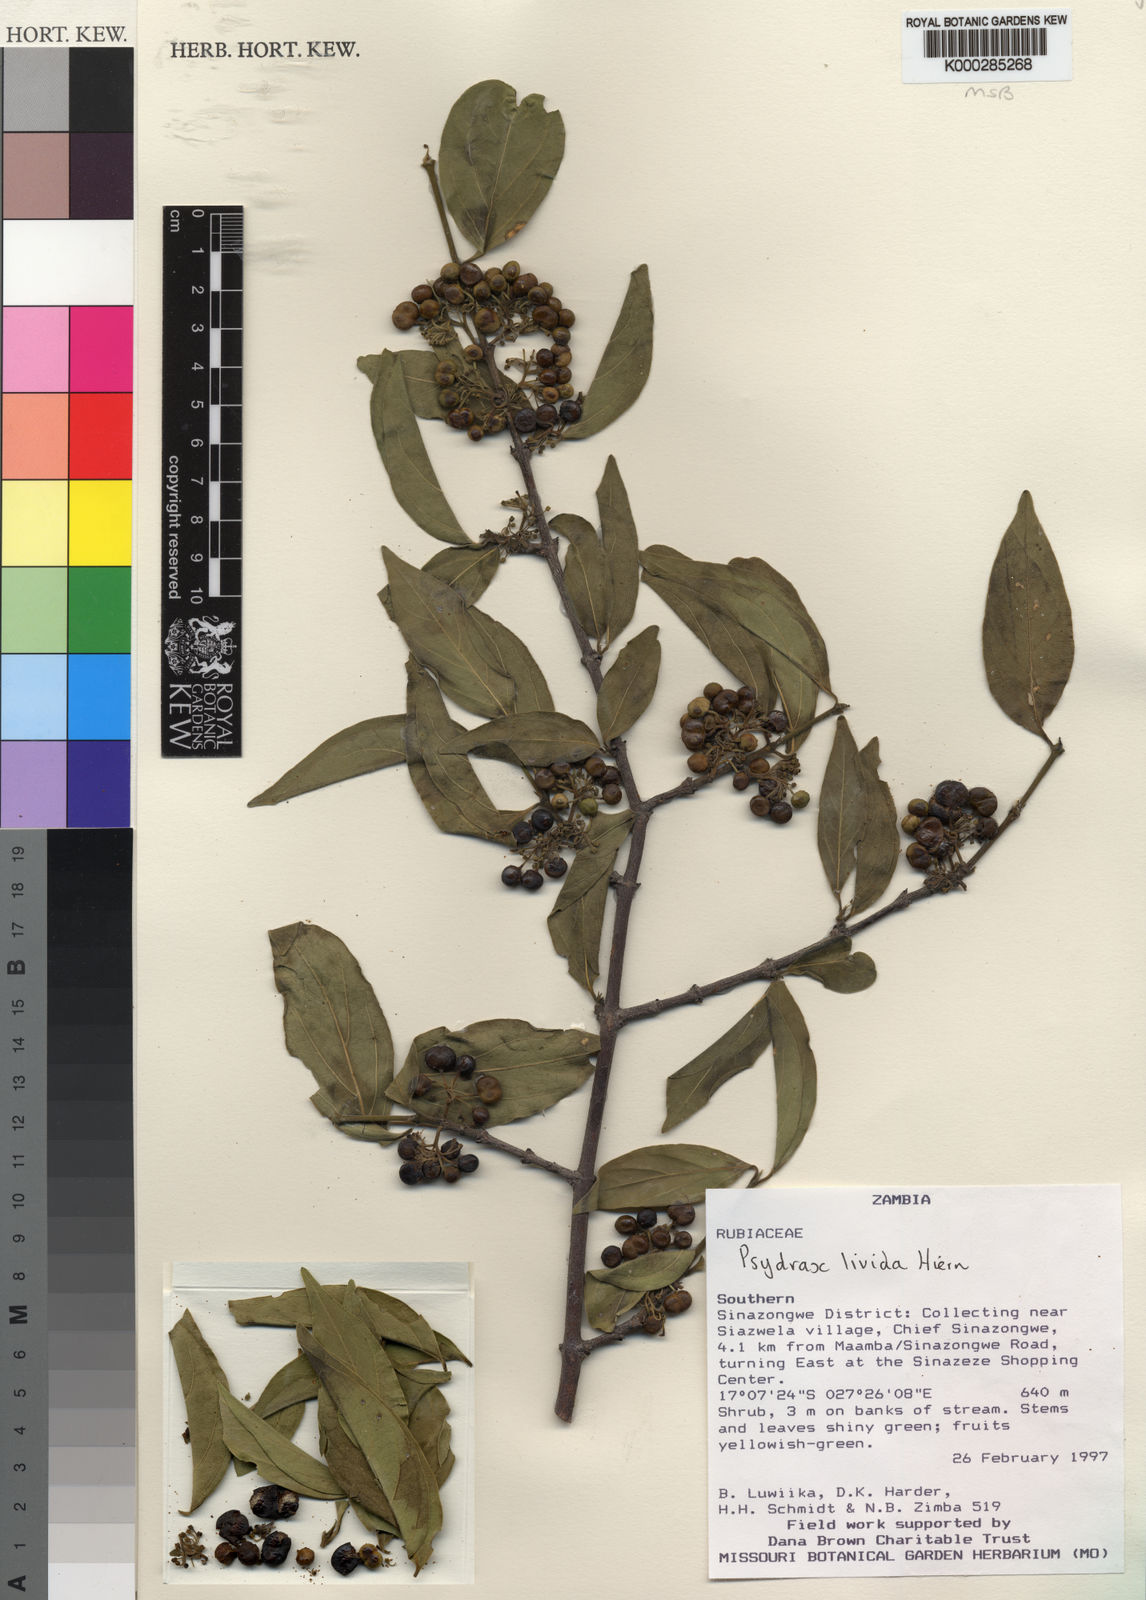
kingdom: Plantae
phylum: Tracheophyta
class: Magnoliopsida
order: Gentianales
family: Rubiaceae
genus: Psydrax
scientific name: Psydrax lividus
